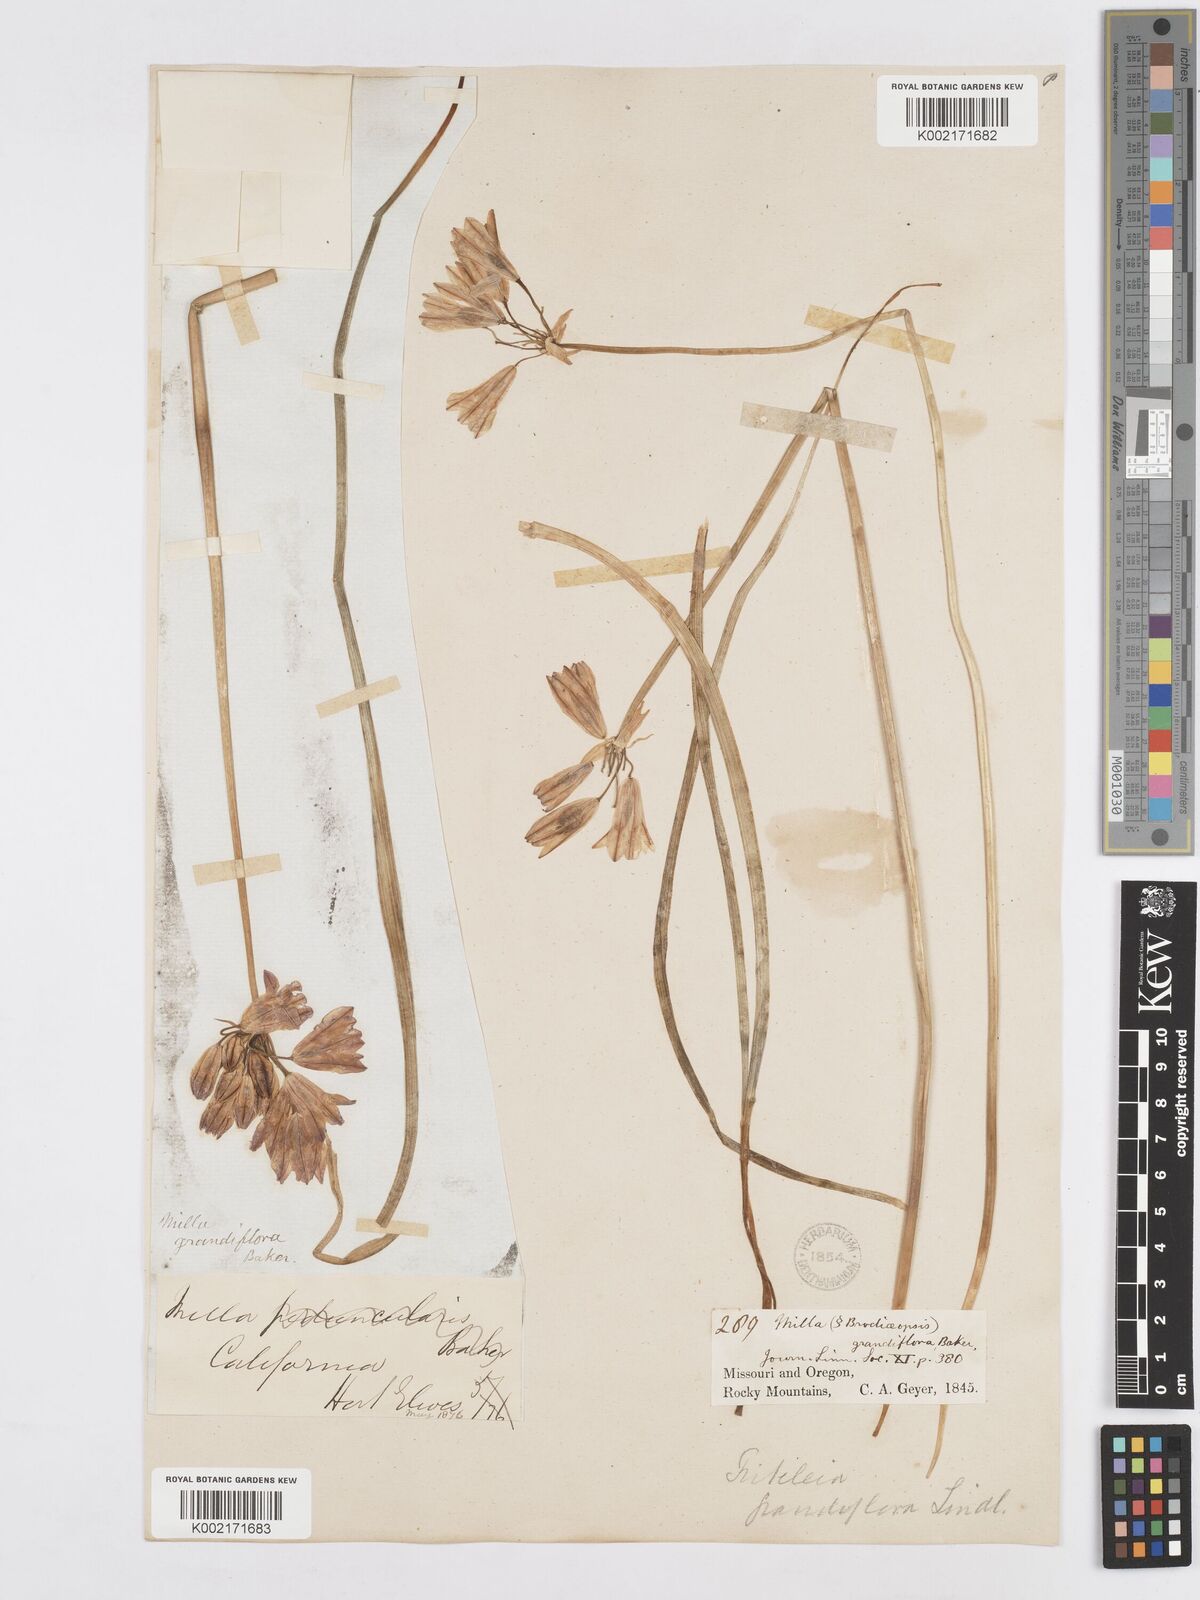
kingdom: Plantae
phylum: Tracheophyta
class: Liliopsida
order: Asparagales
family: Asparagaceae
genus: Triteleia
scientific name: Triteleia grandiflora
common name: Wild hyacinth
